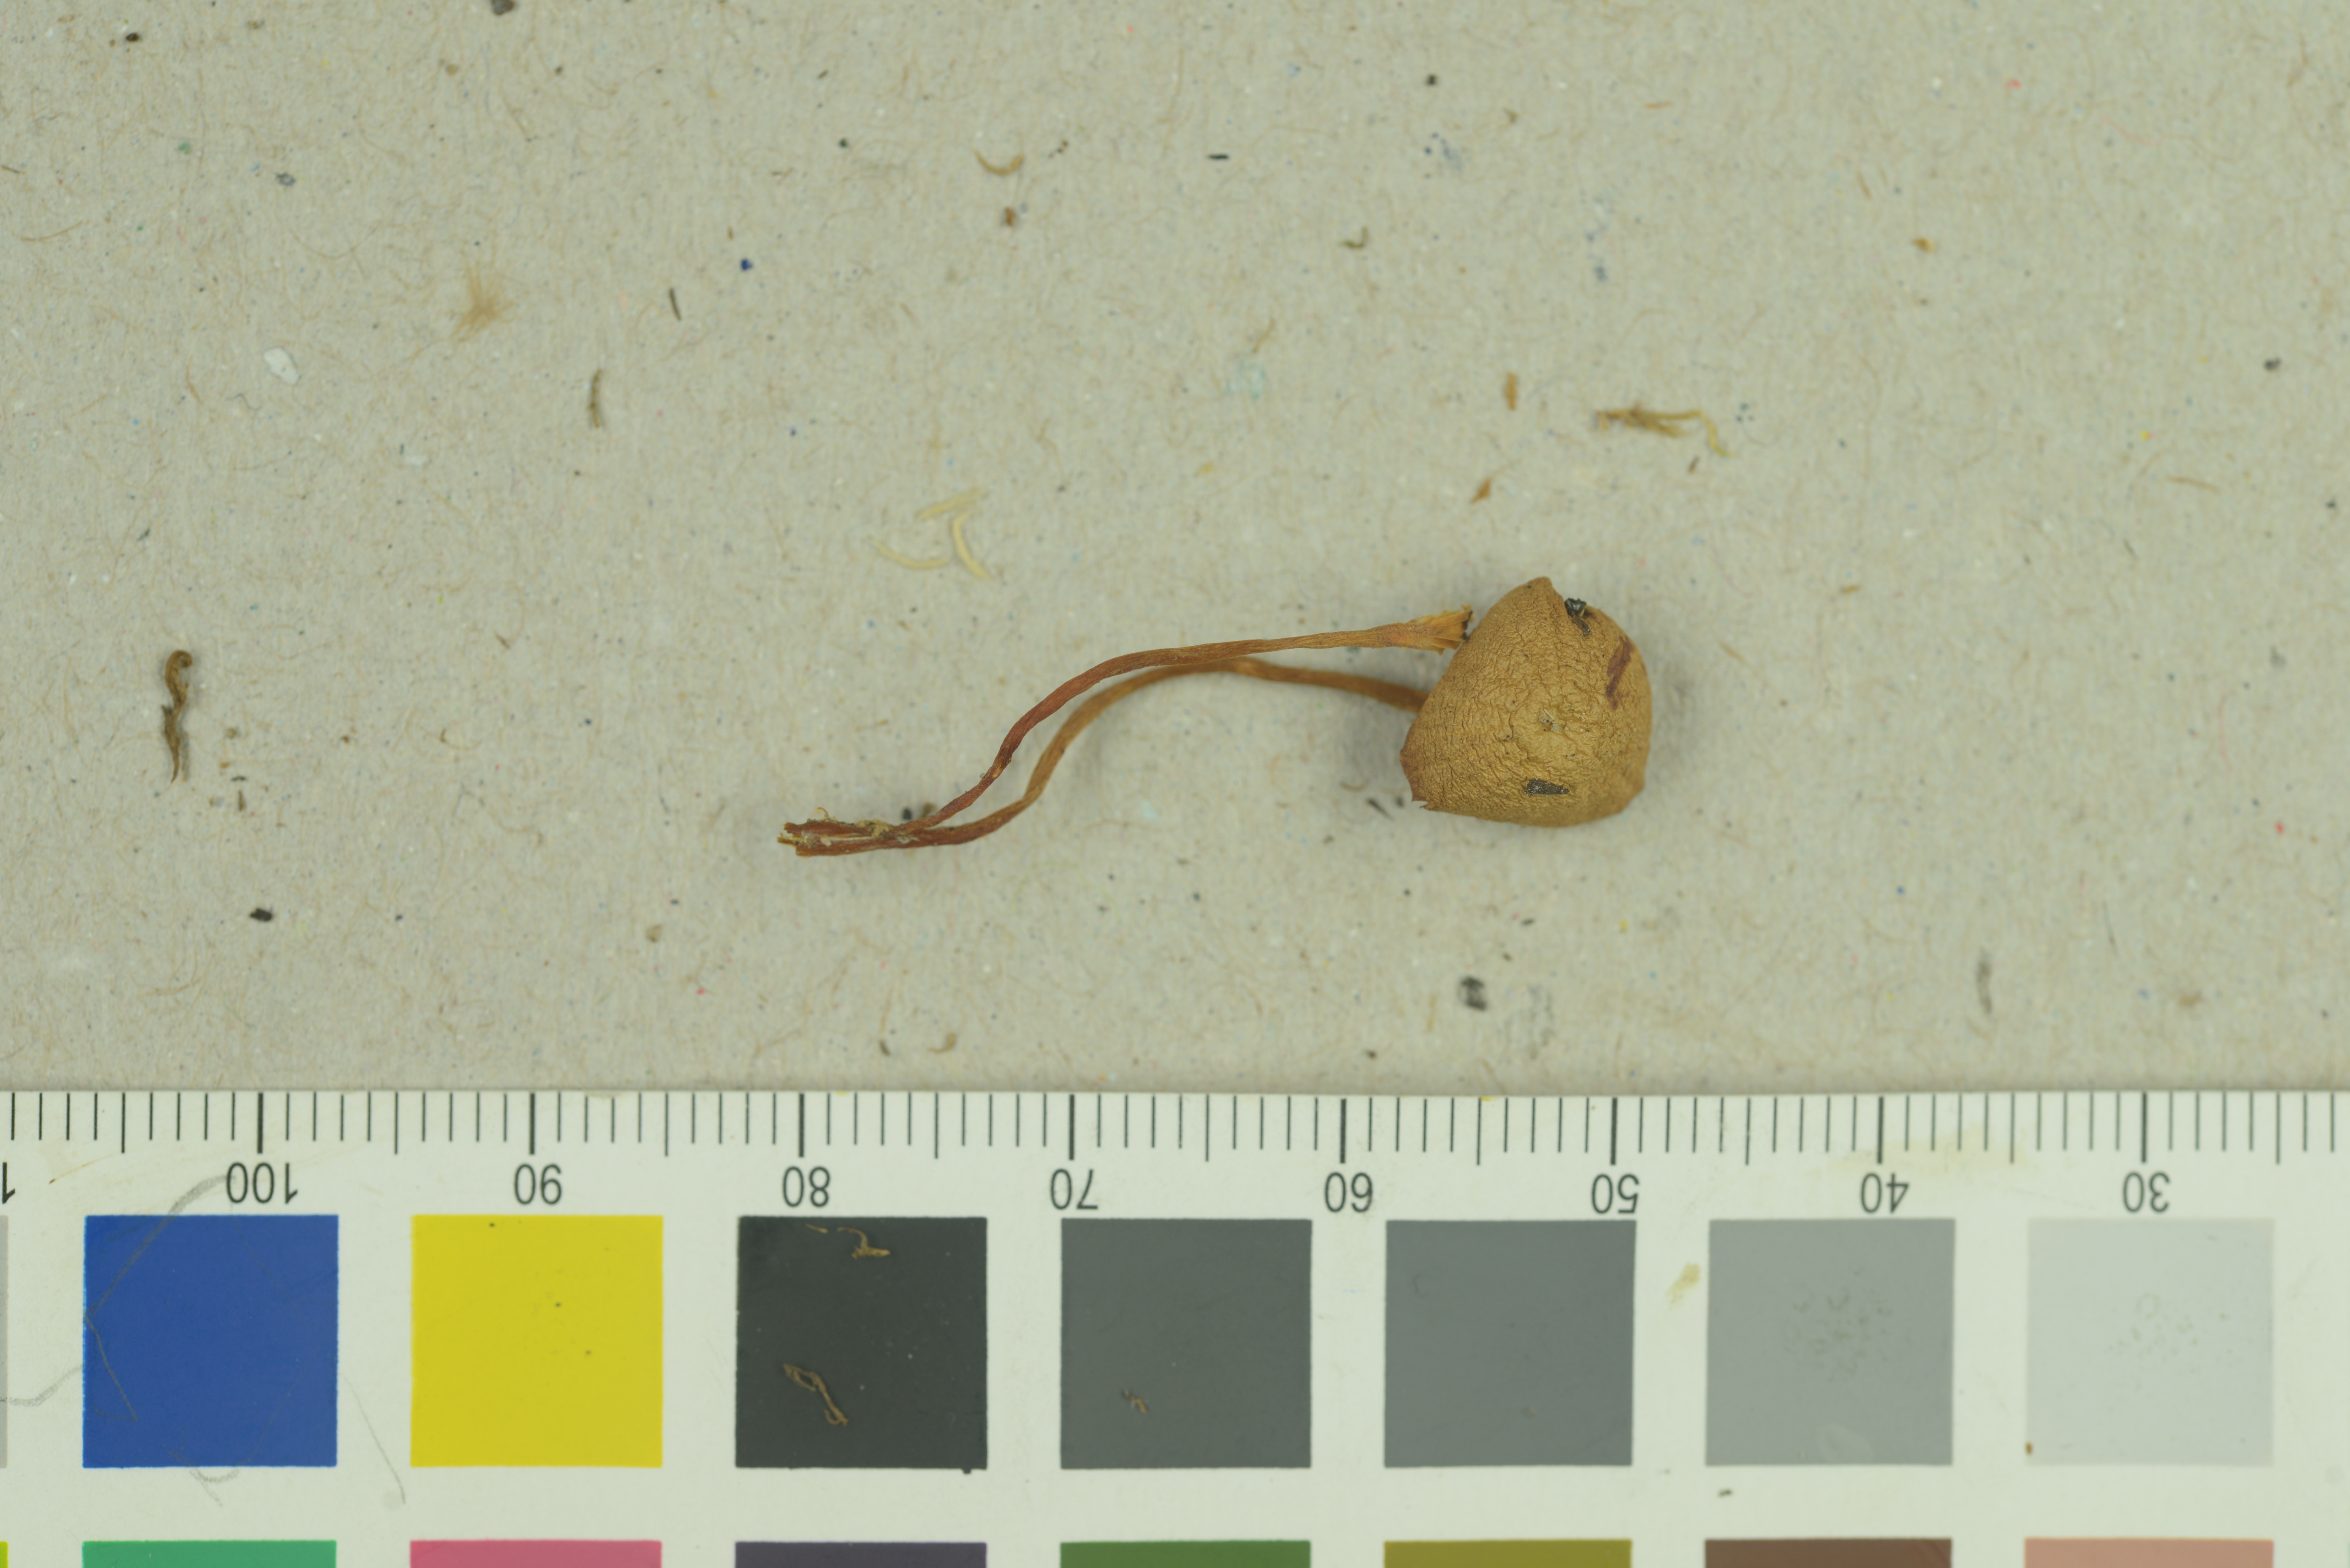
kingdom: Fungi
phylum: Basidiomycota
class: Agaricomycetes
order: Agaricales
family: Hymenogastraceae
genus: Galerina
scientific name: Galerina vittiformis
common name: Hairy leg bell
